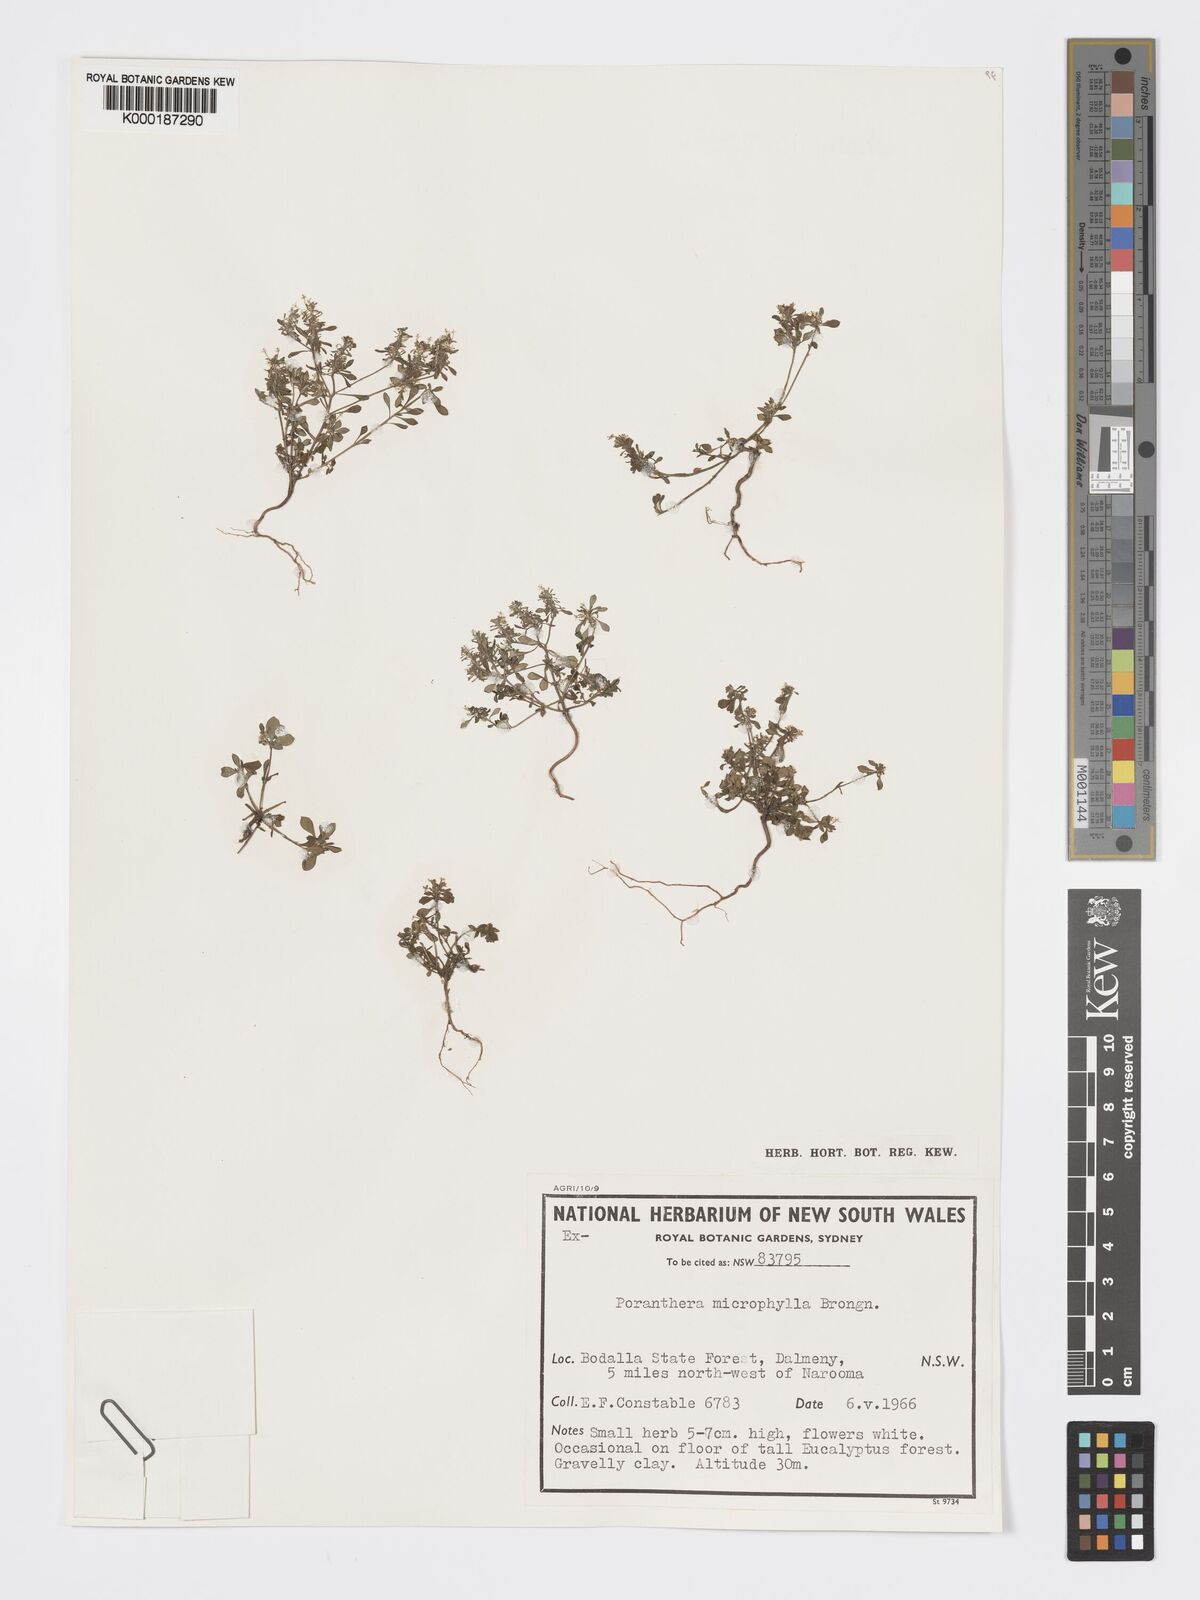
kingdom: Plantae
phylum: Tracheophyta
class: Magnoliopsida
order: Malpighiales
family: Phyllanthaceae
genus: Poranthera
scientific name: Poranthera microphylla
